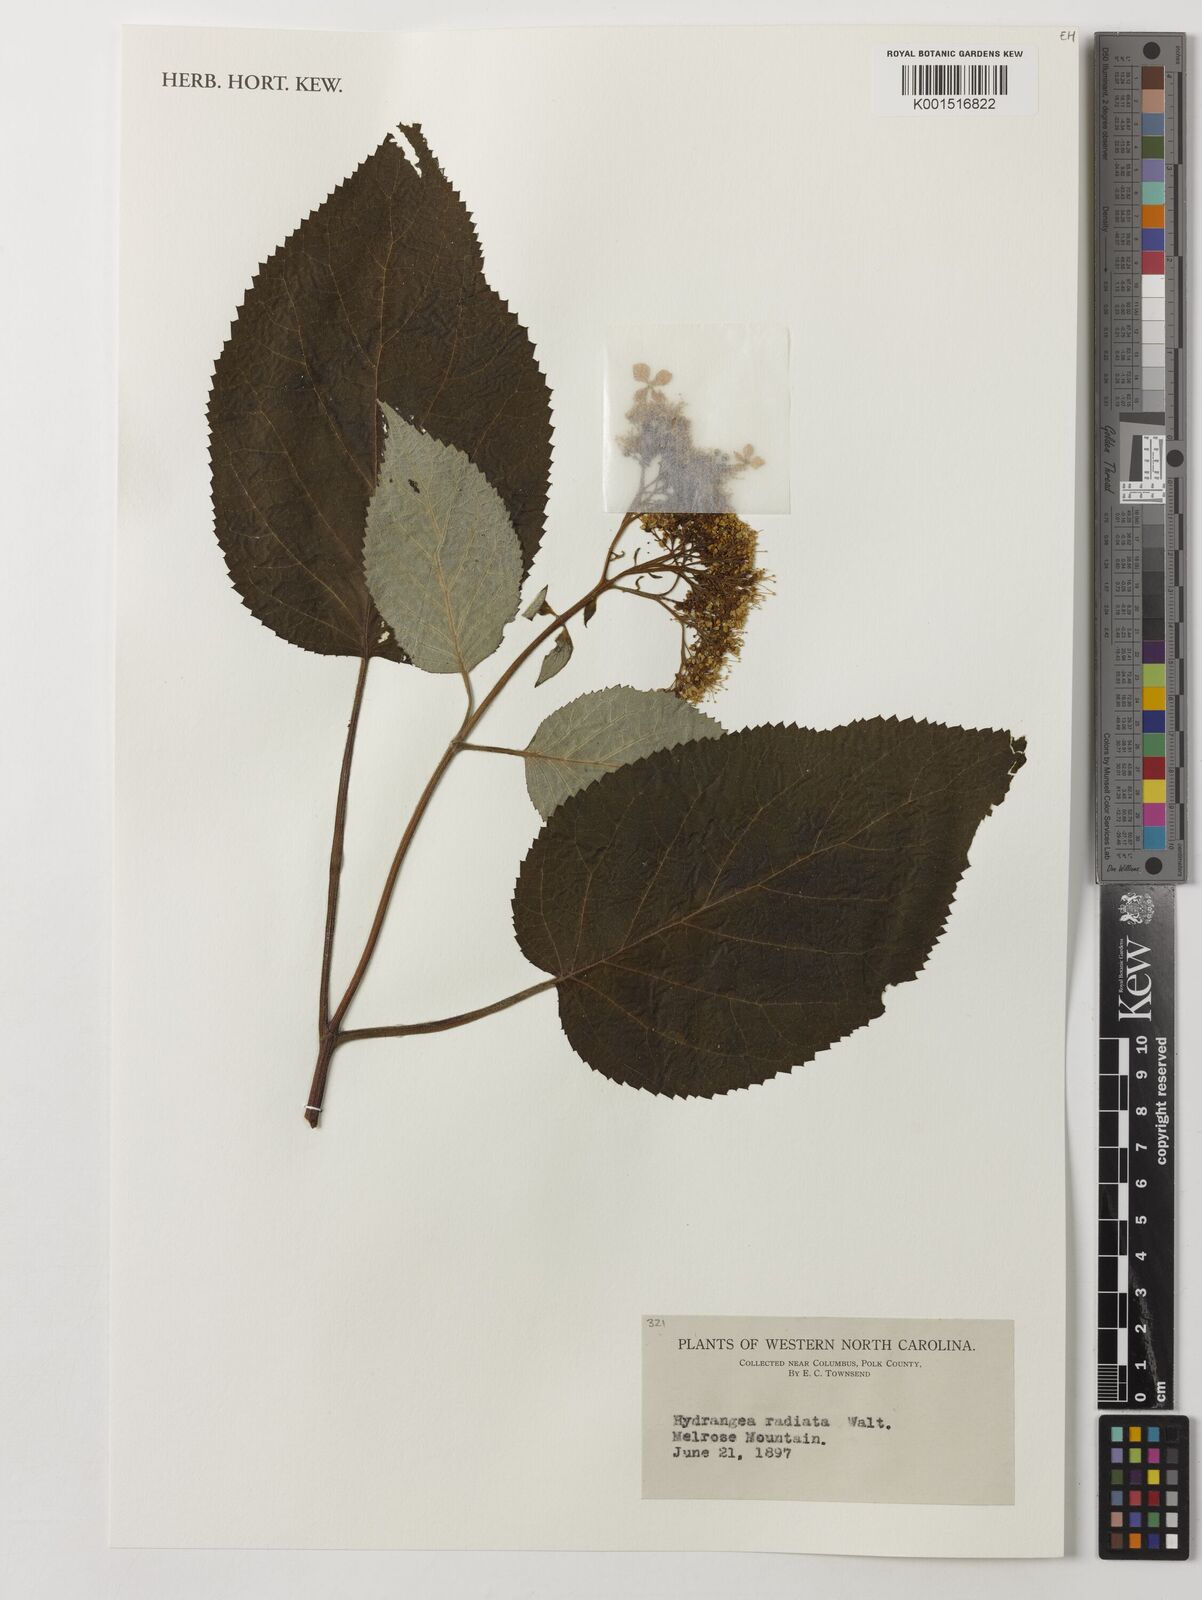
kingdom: Plantae
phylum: Tracheophyta
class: Magnoliopsida
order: Cornales
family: Hydrangeaceae
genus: Hydrangea
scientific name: Hydrangea radiata
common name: Silverleaf hydrangea
